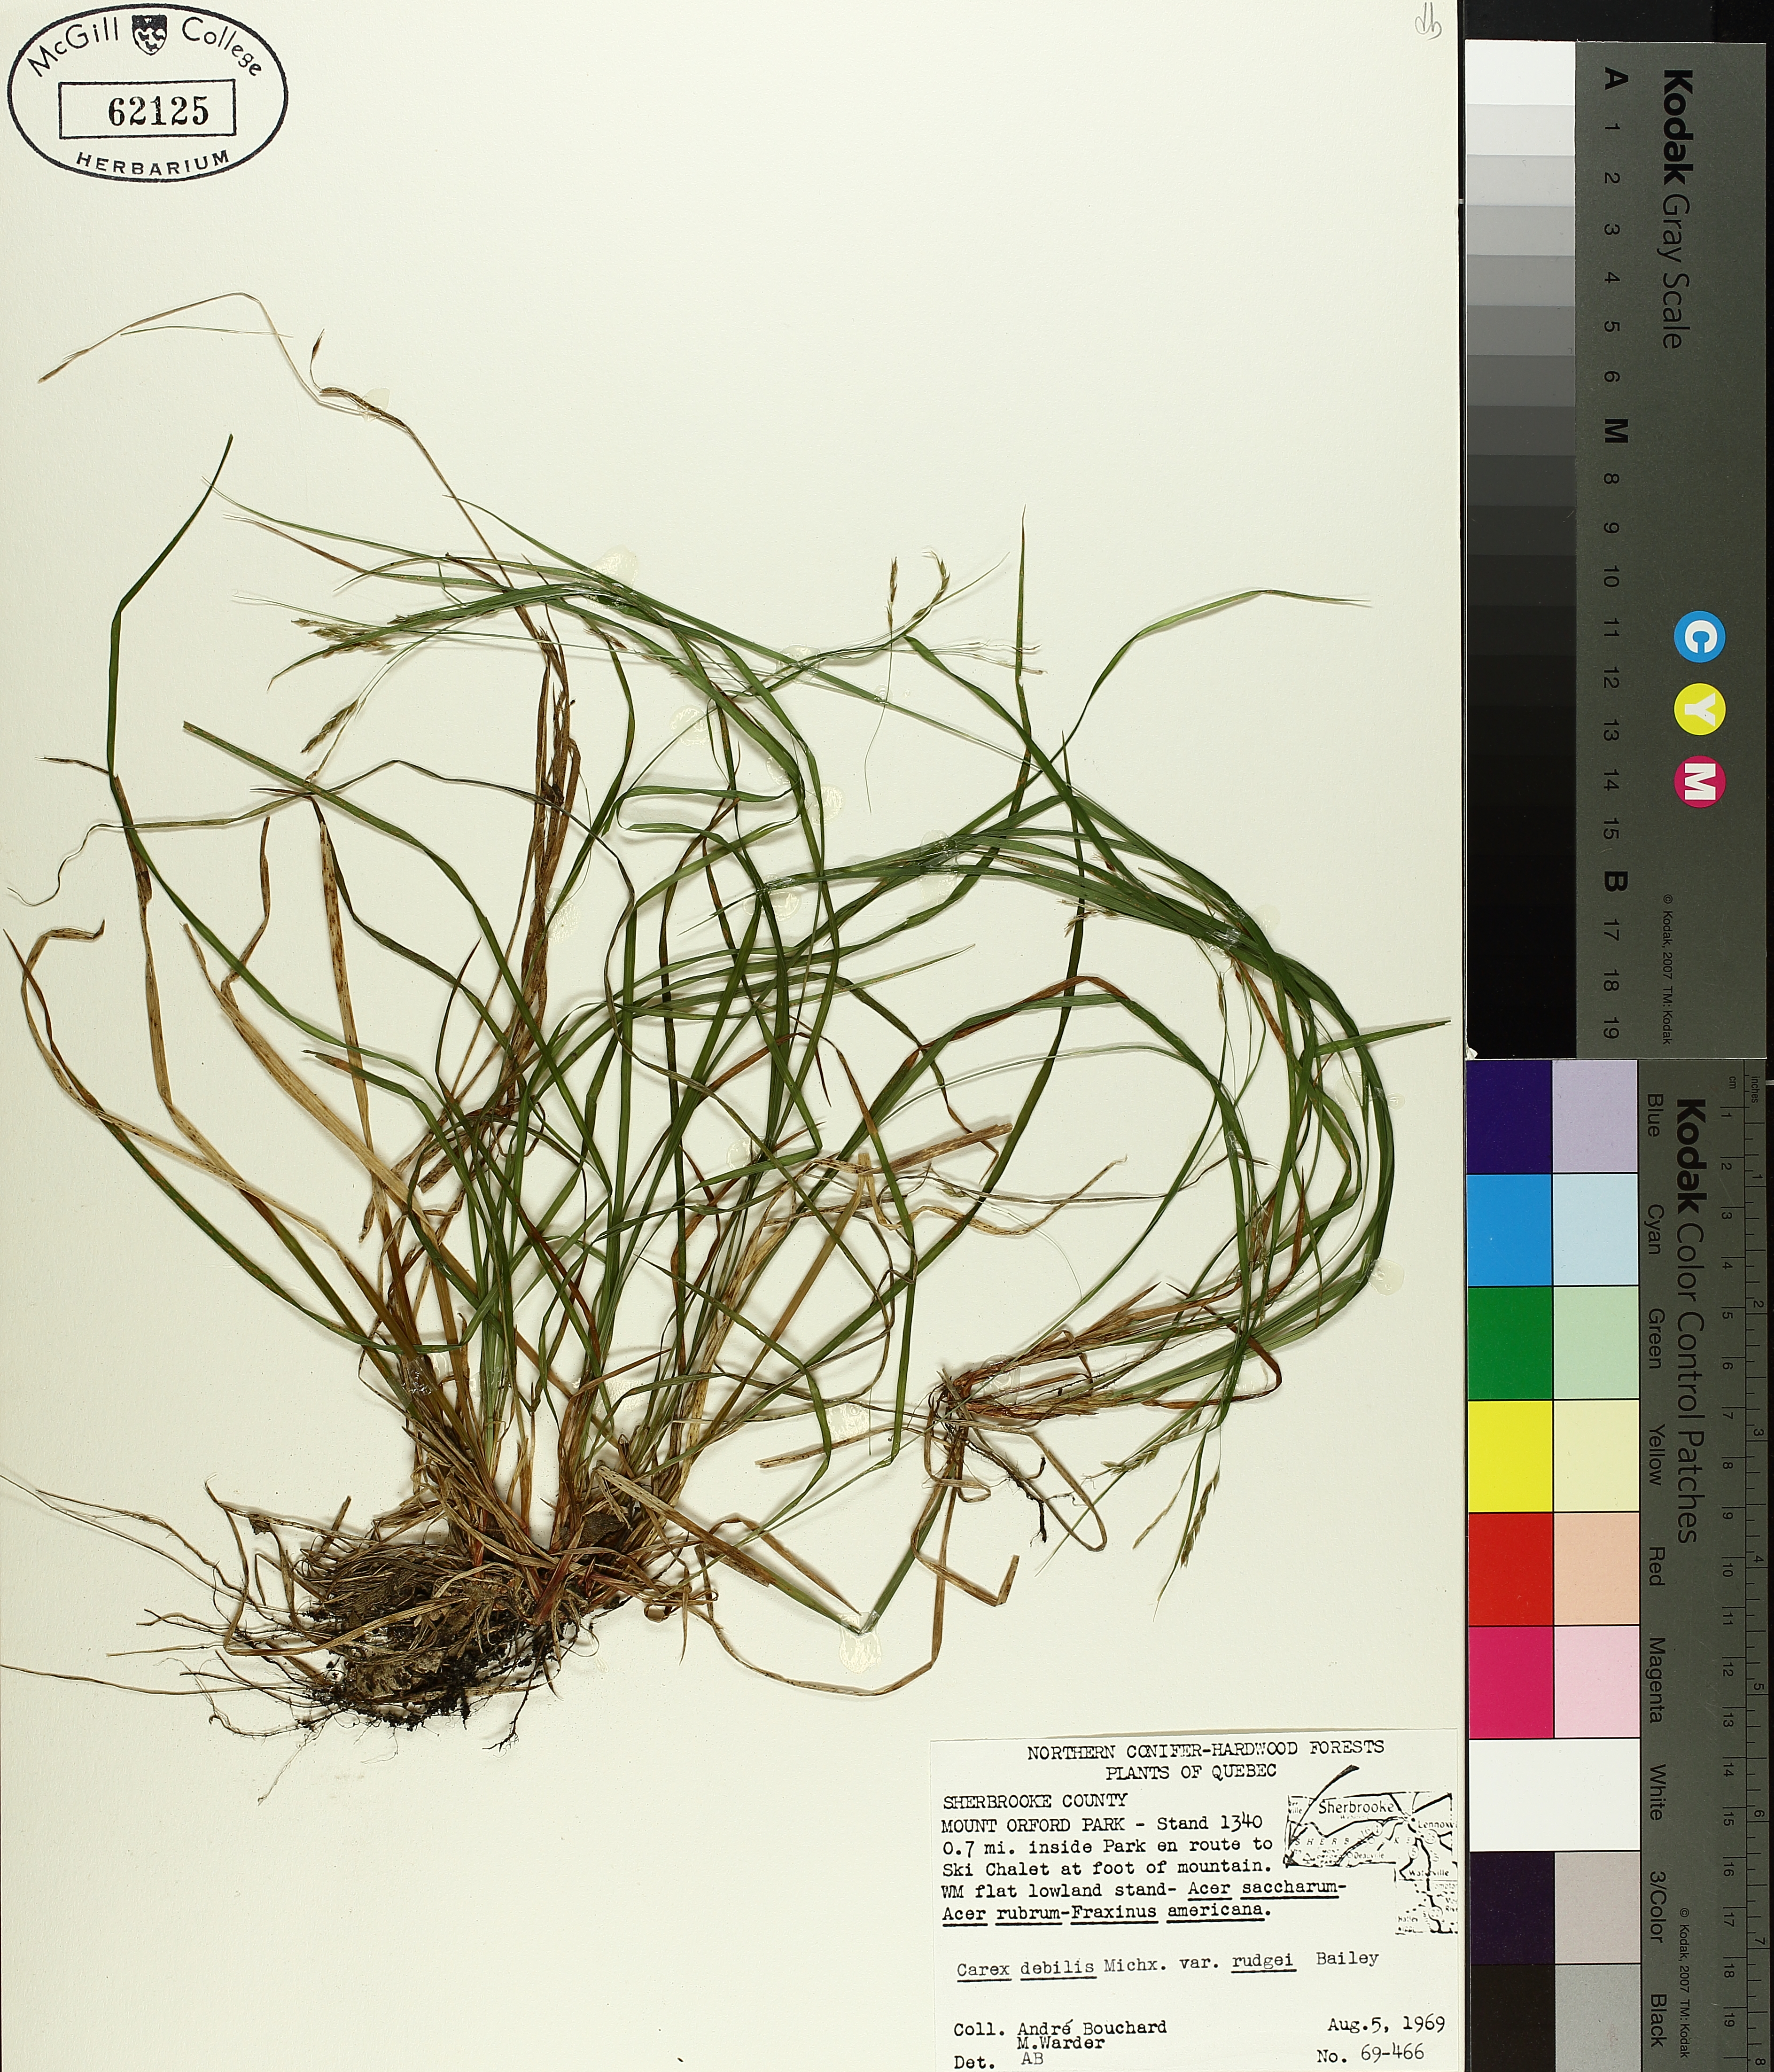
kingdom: Plantae
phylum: Tracheophyta
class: Liliopsida
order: Poales
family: Cyperaceae
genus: Carex
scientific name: Carex debilis
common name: White-edge sedge
